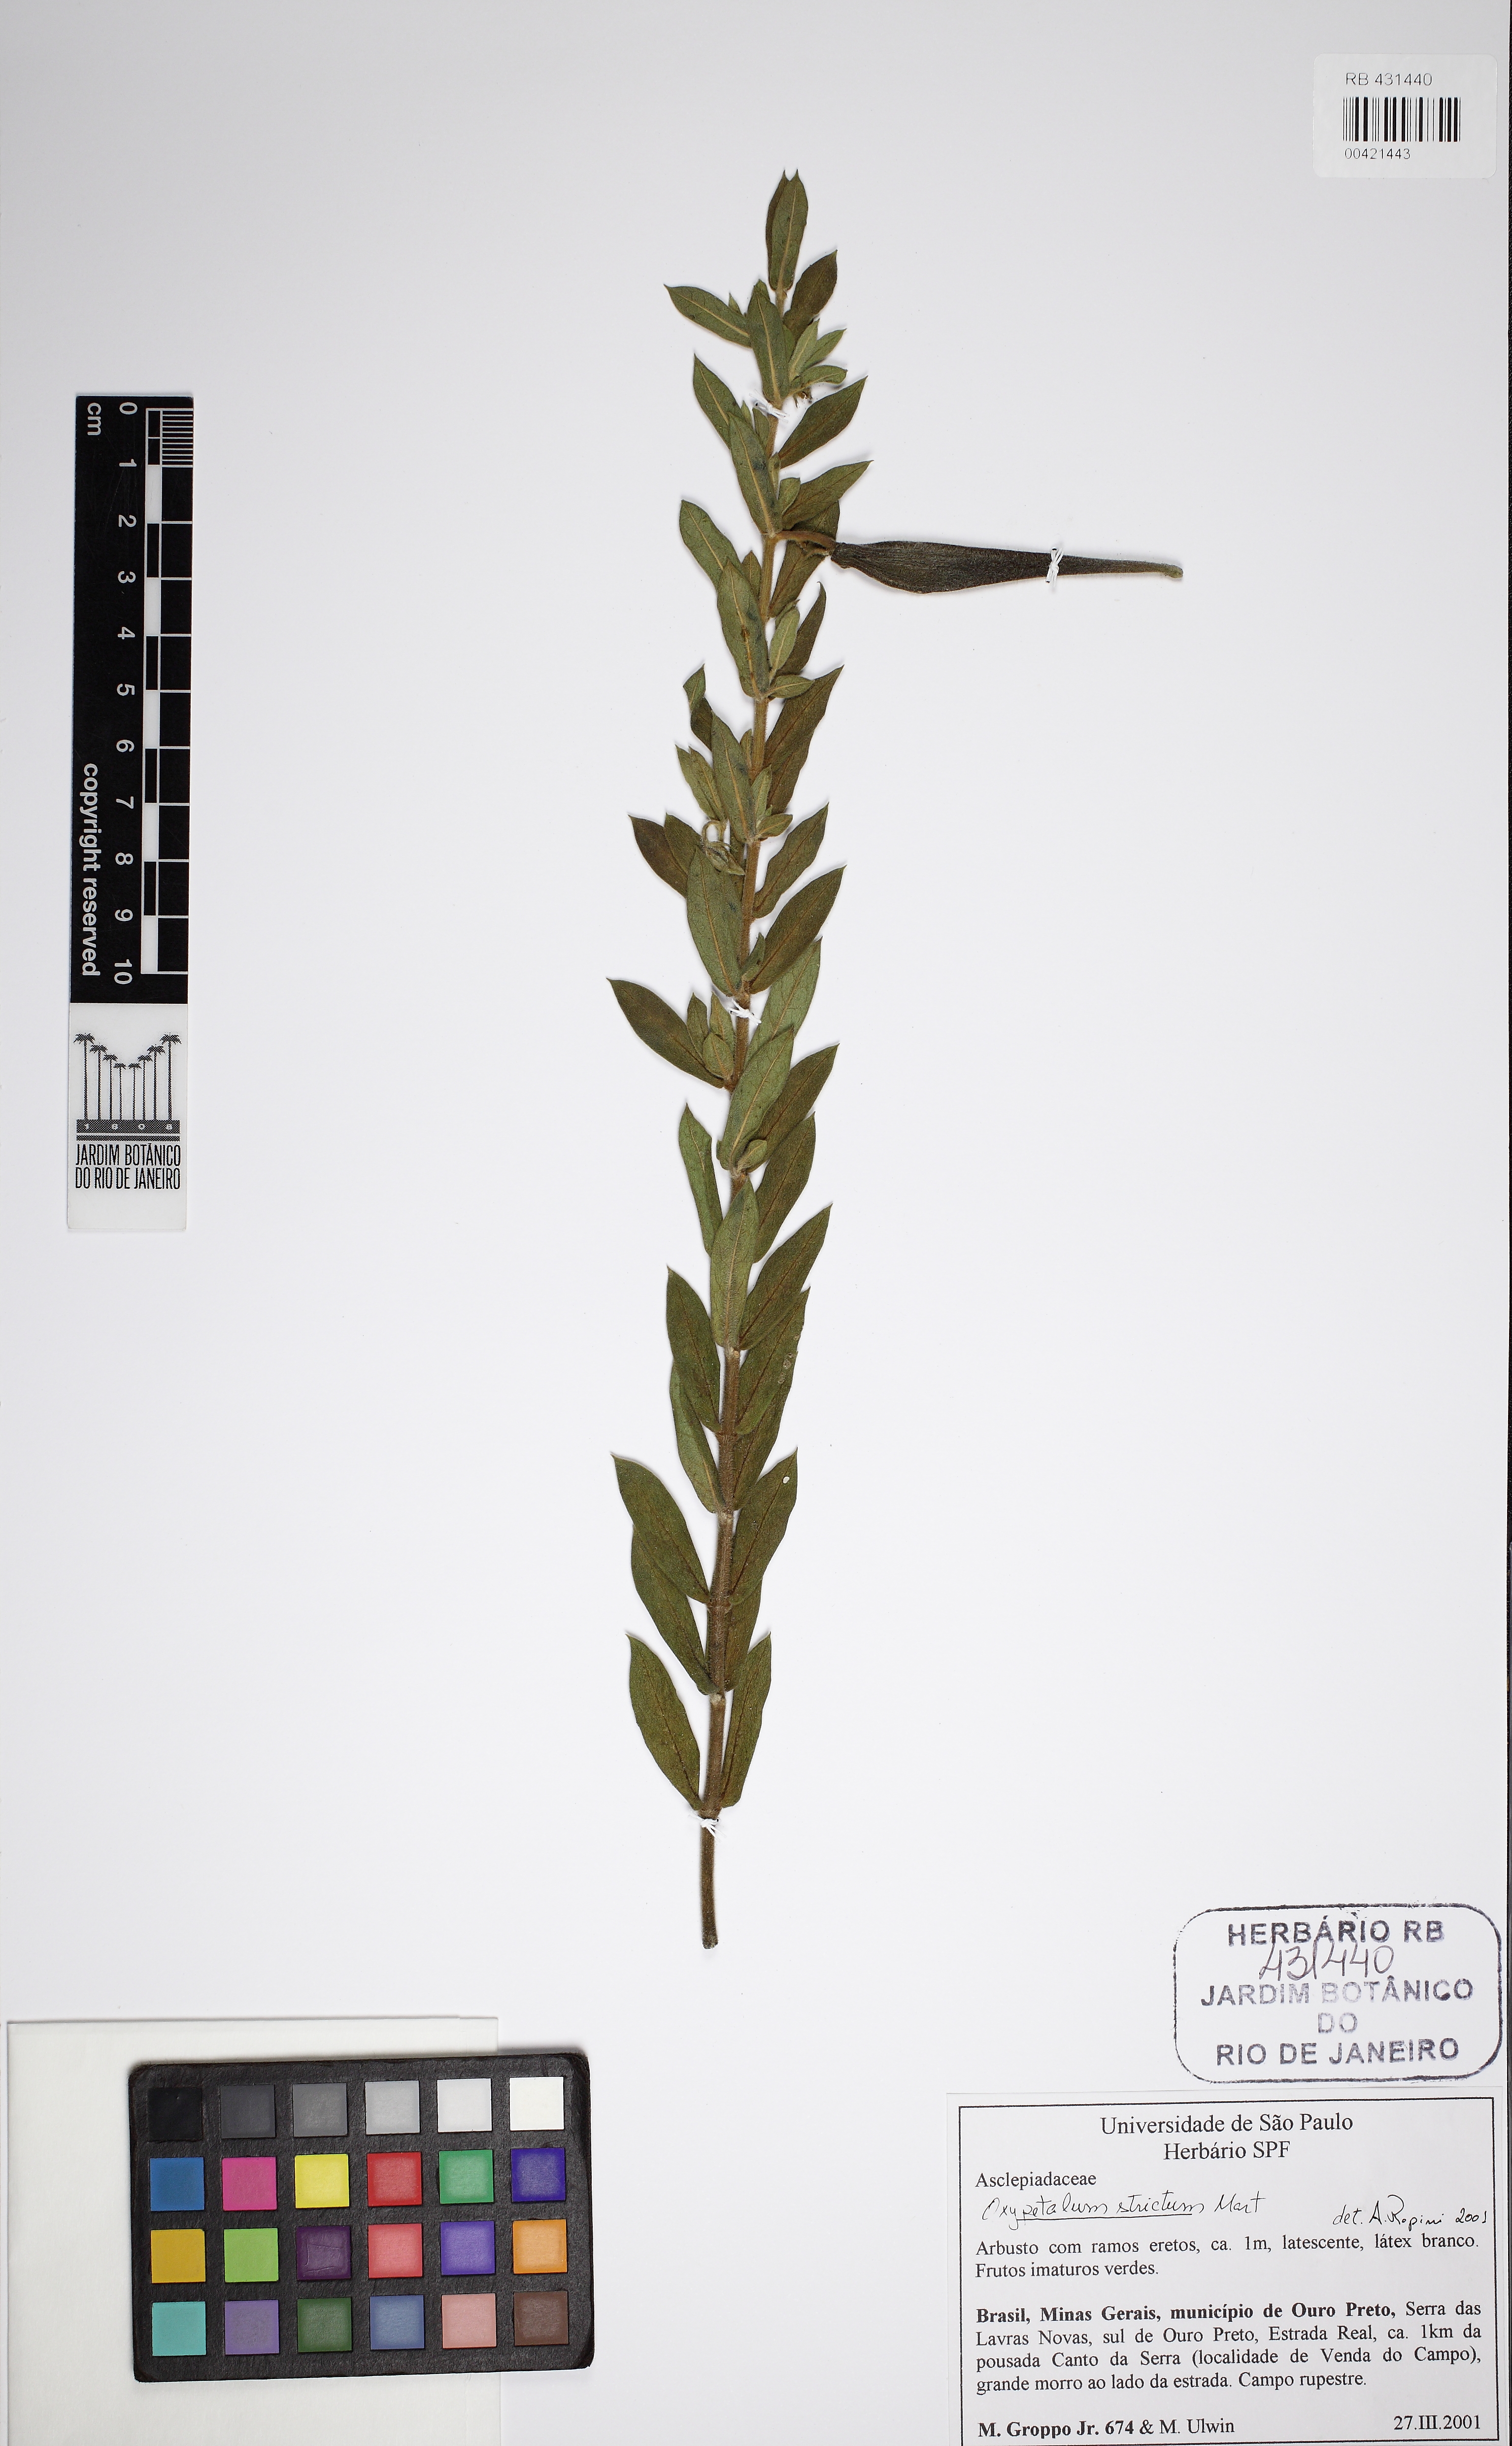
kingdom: Plantae
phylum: Tracheophyta
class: Magnoliopsida
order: Gentianales
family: Apocynaceae
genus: Oxypetalum
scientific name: Oxypetalum strictum
